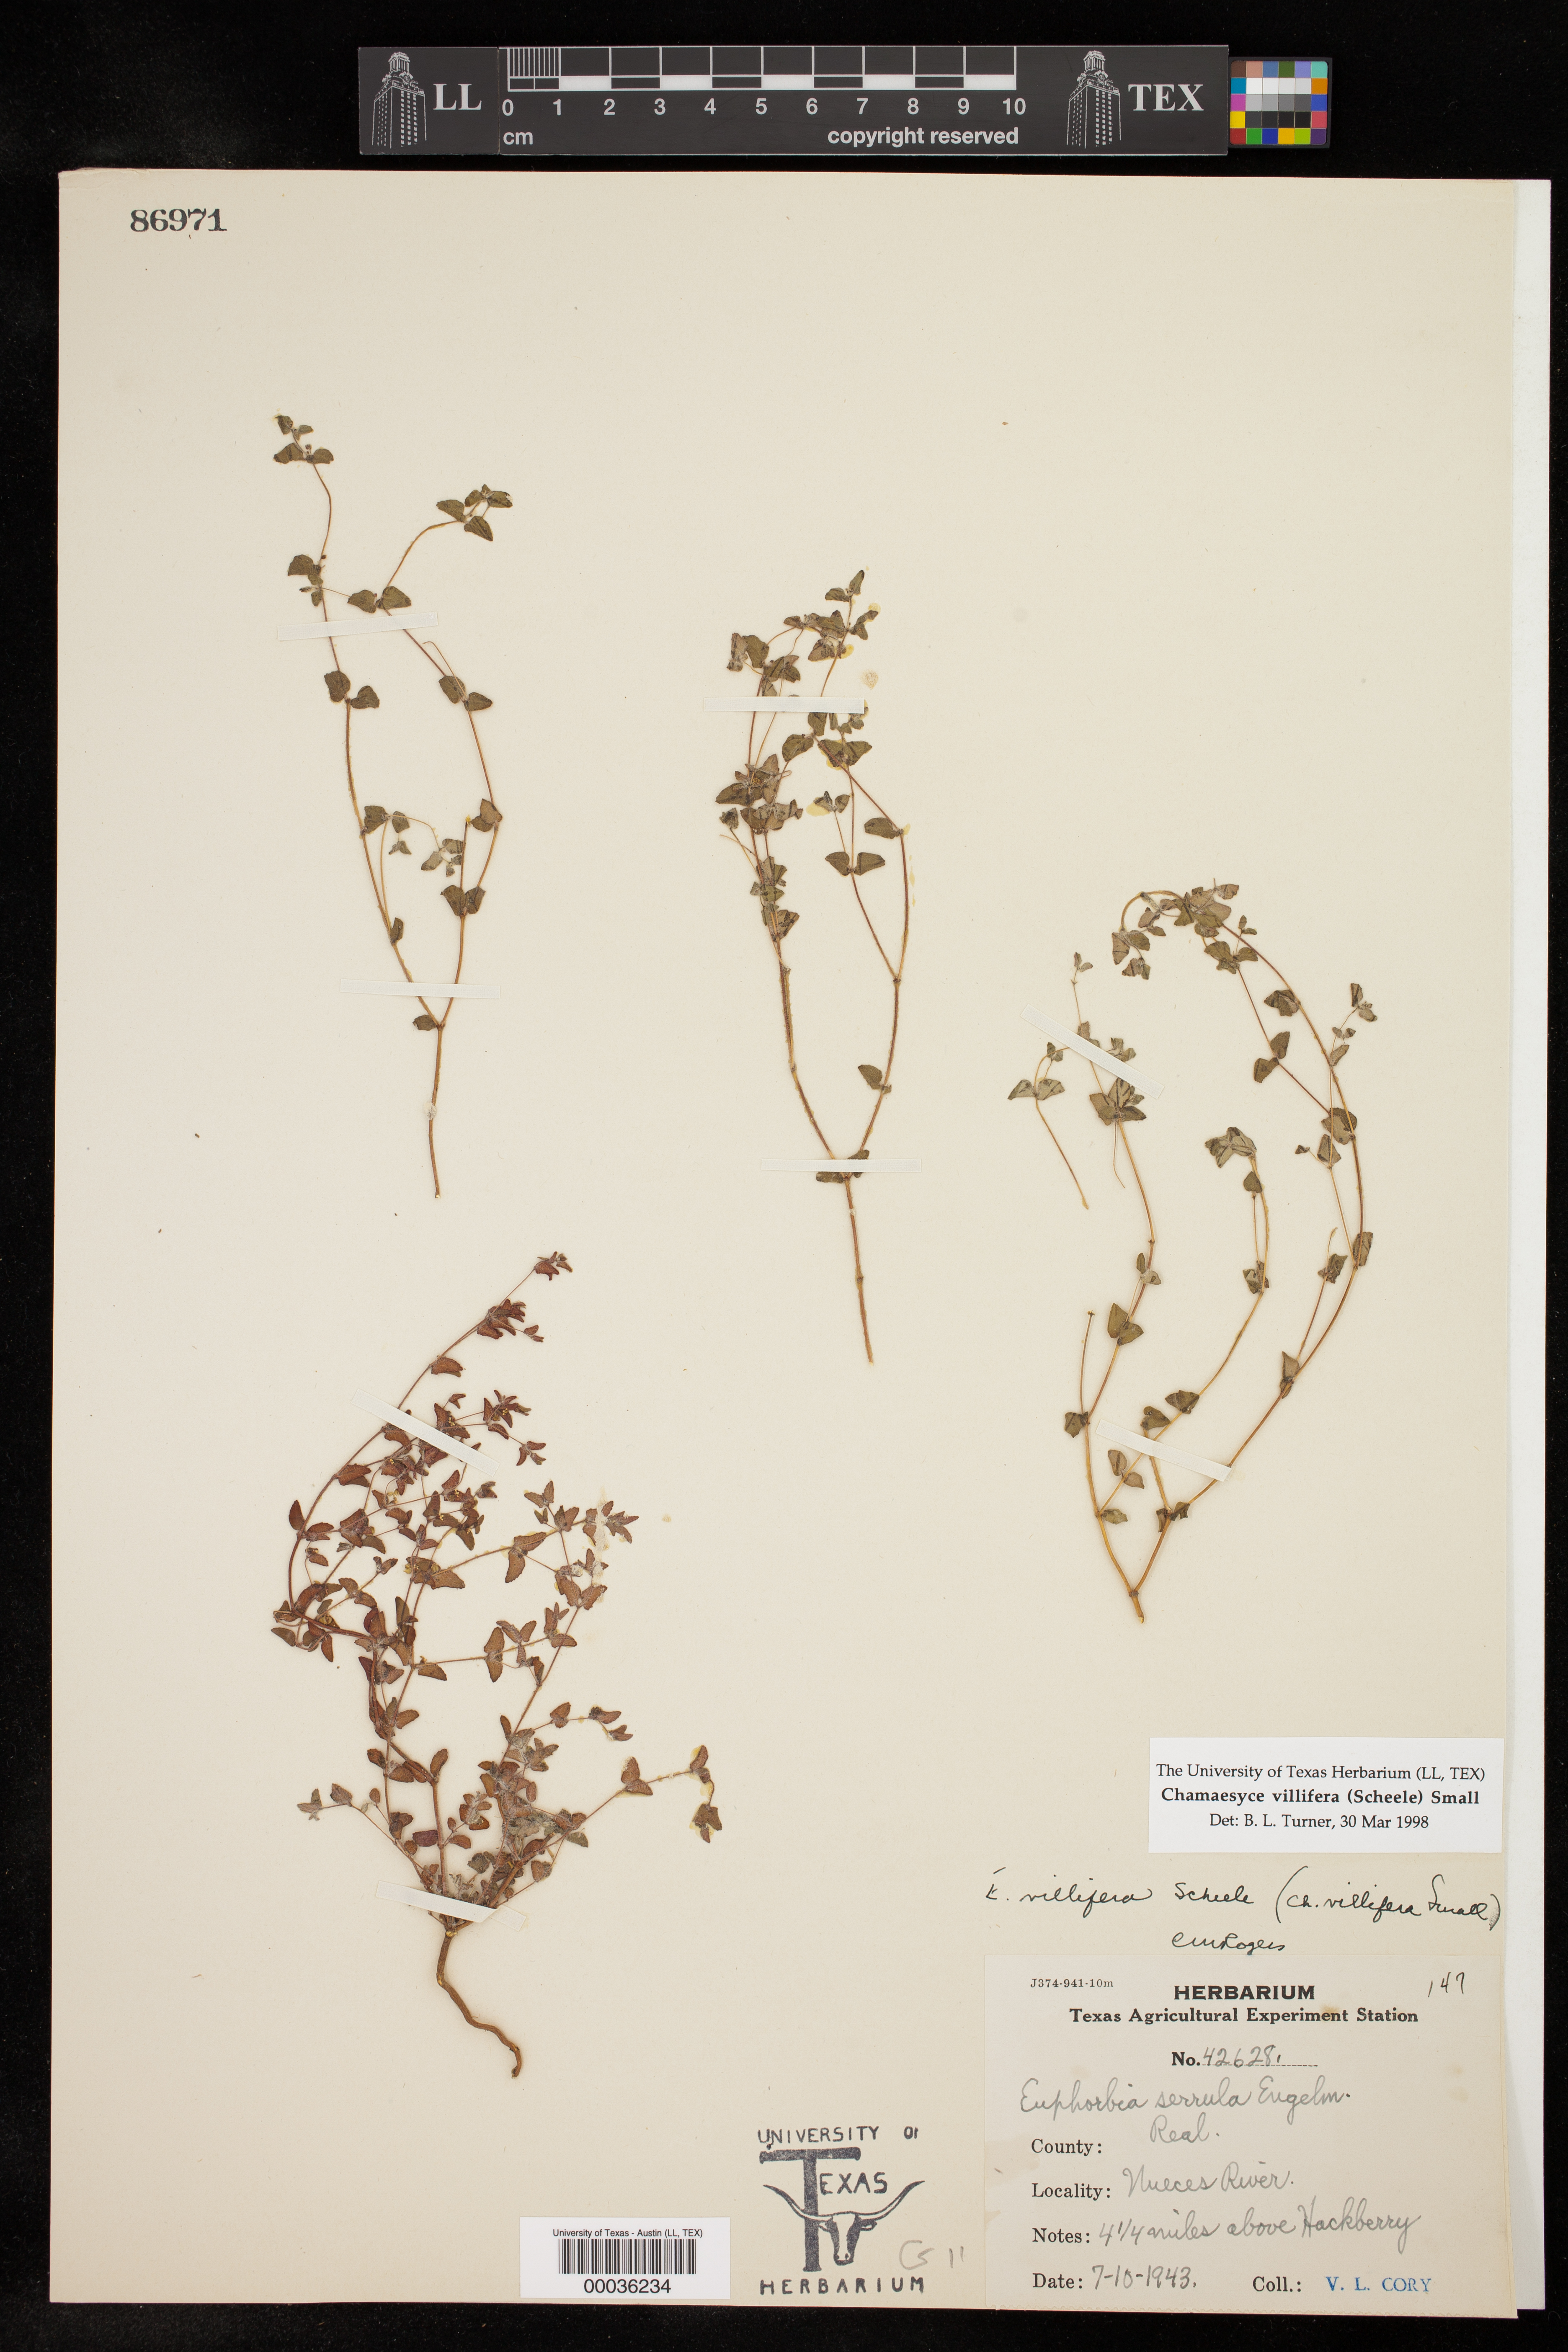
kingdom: Plantae
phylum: Tracheophyta
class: Magnoliopsida
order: Malpighiales
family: Euphorbiaceae
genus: Euphorbia
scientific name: Euphorbia villifera
